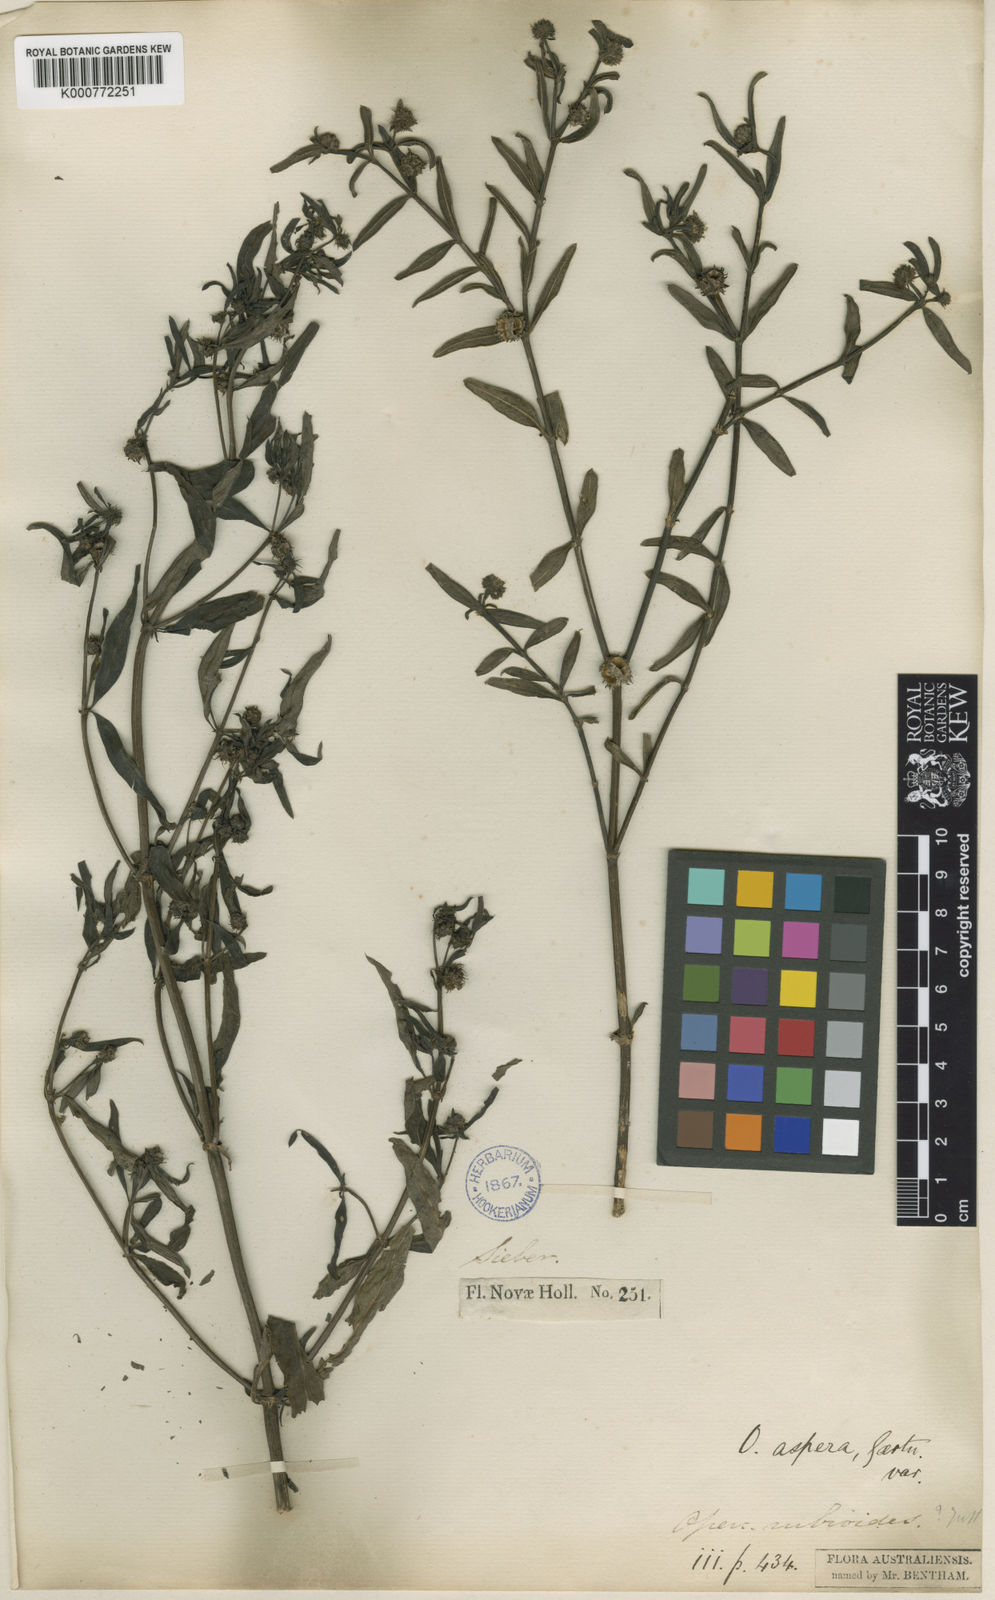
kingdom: Plantae
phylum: Tracheophyta
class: Magnoliopsida
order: Gentianales
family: Rubiaceae
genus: Opercularia
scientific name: Opercularia aspera
